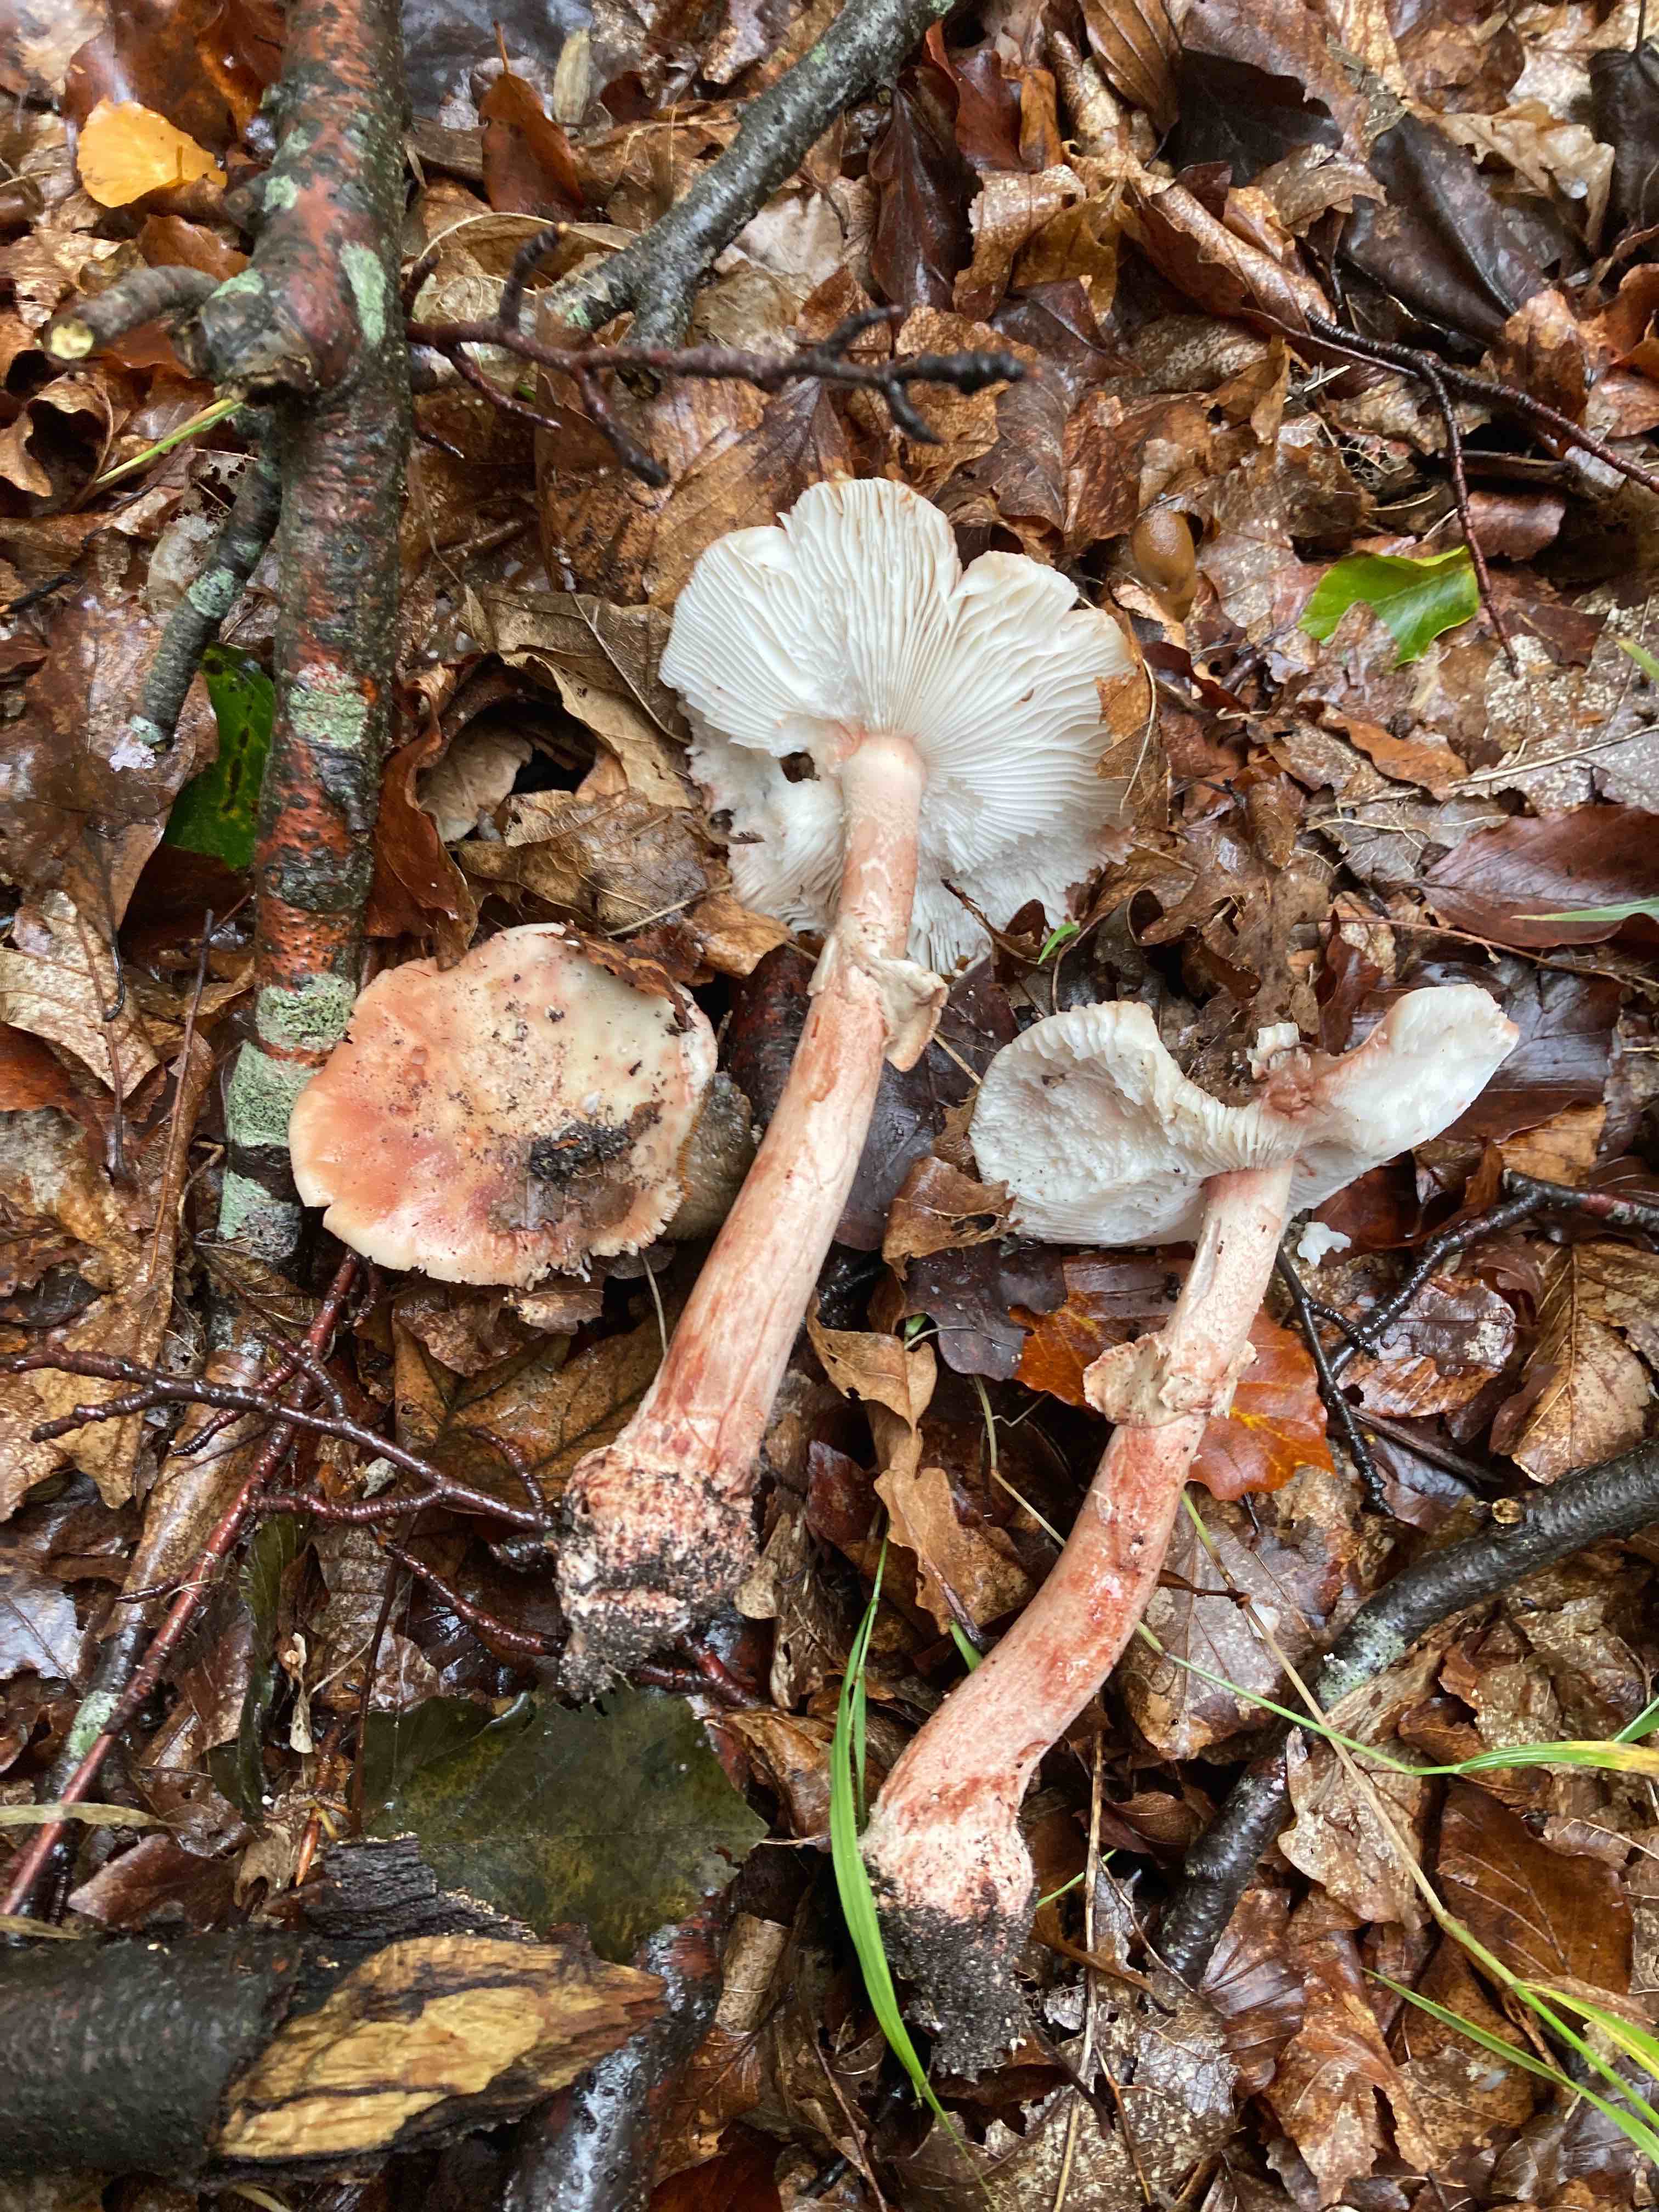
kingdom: Fungi
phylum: Basidiomycota
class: Agaricomycetes
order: Agaricales
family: Amanitaceae
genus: Amanita
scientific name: Amanita rubescens
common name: rødmende fluesvamp
